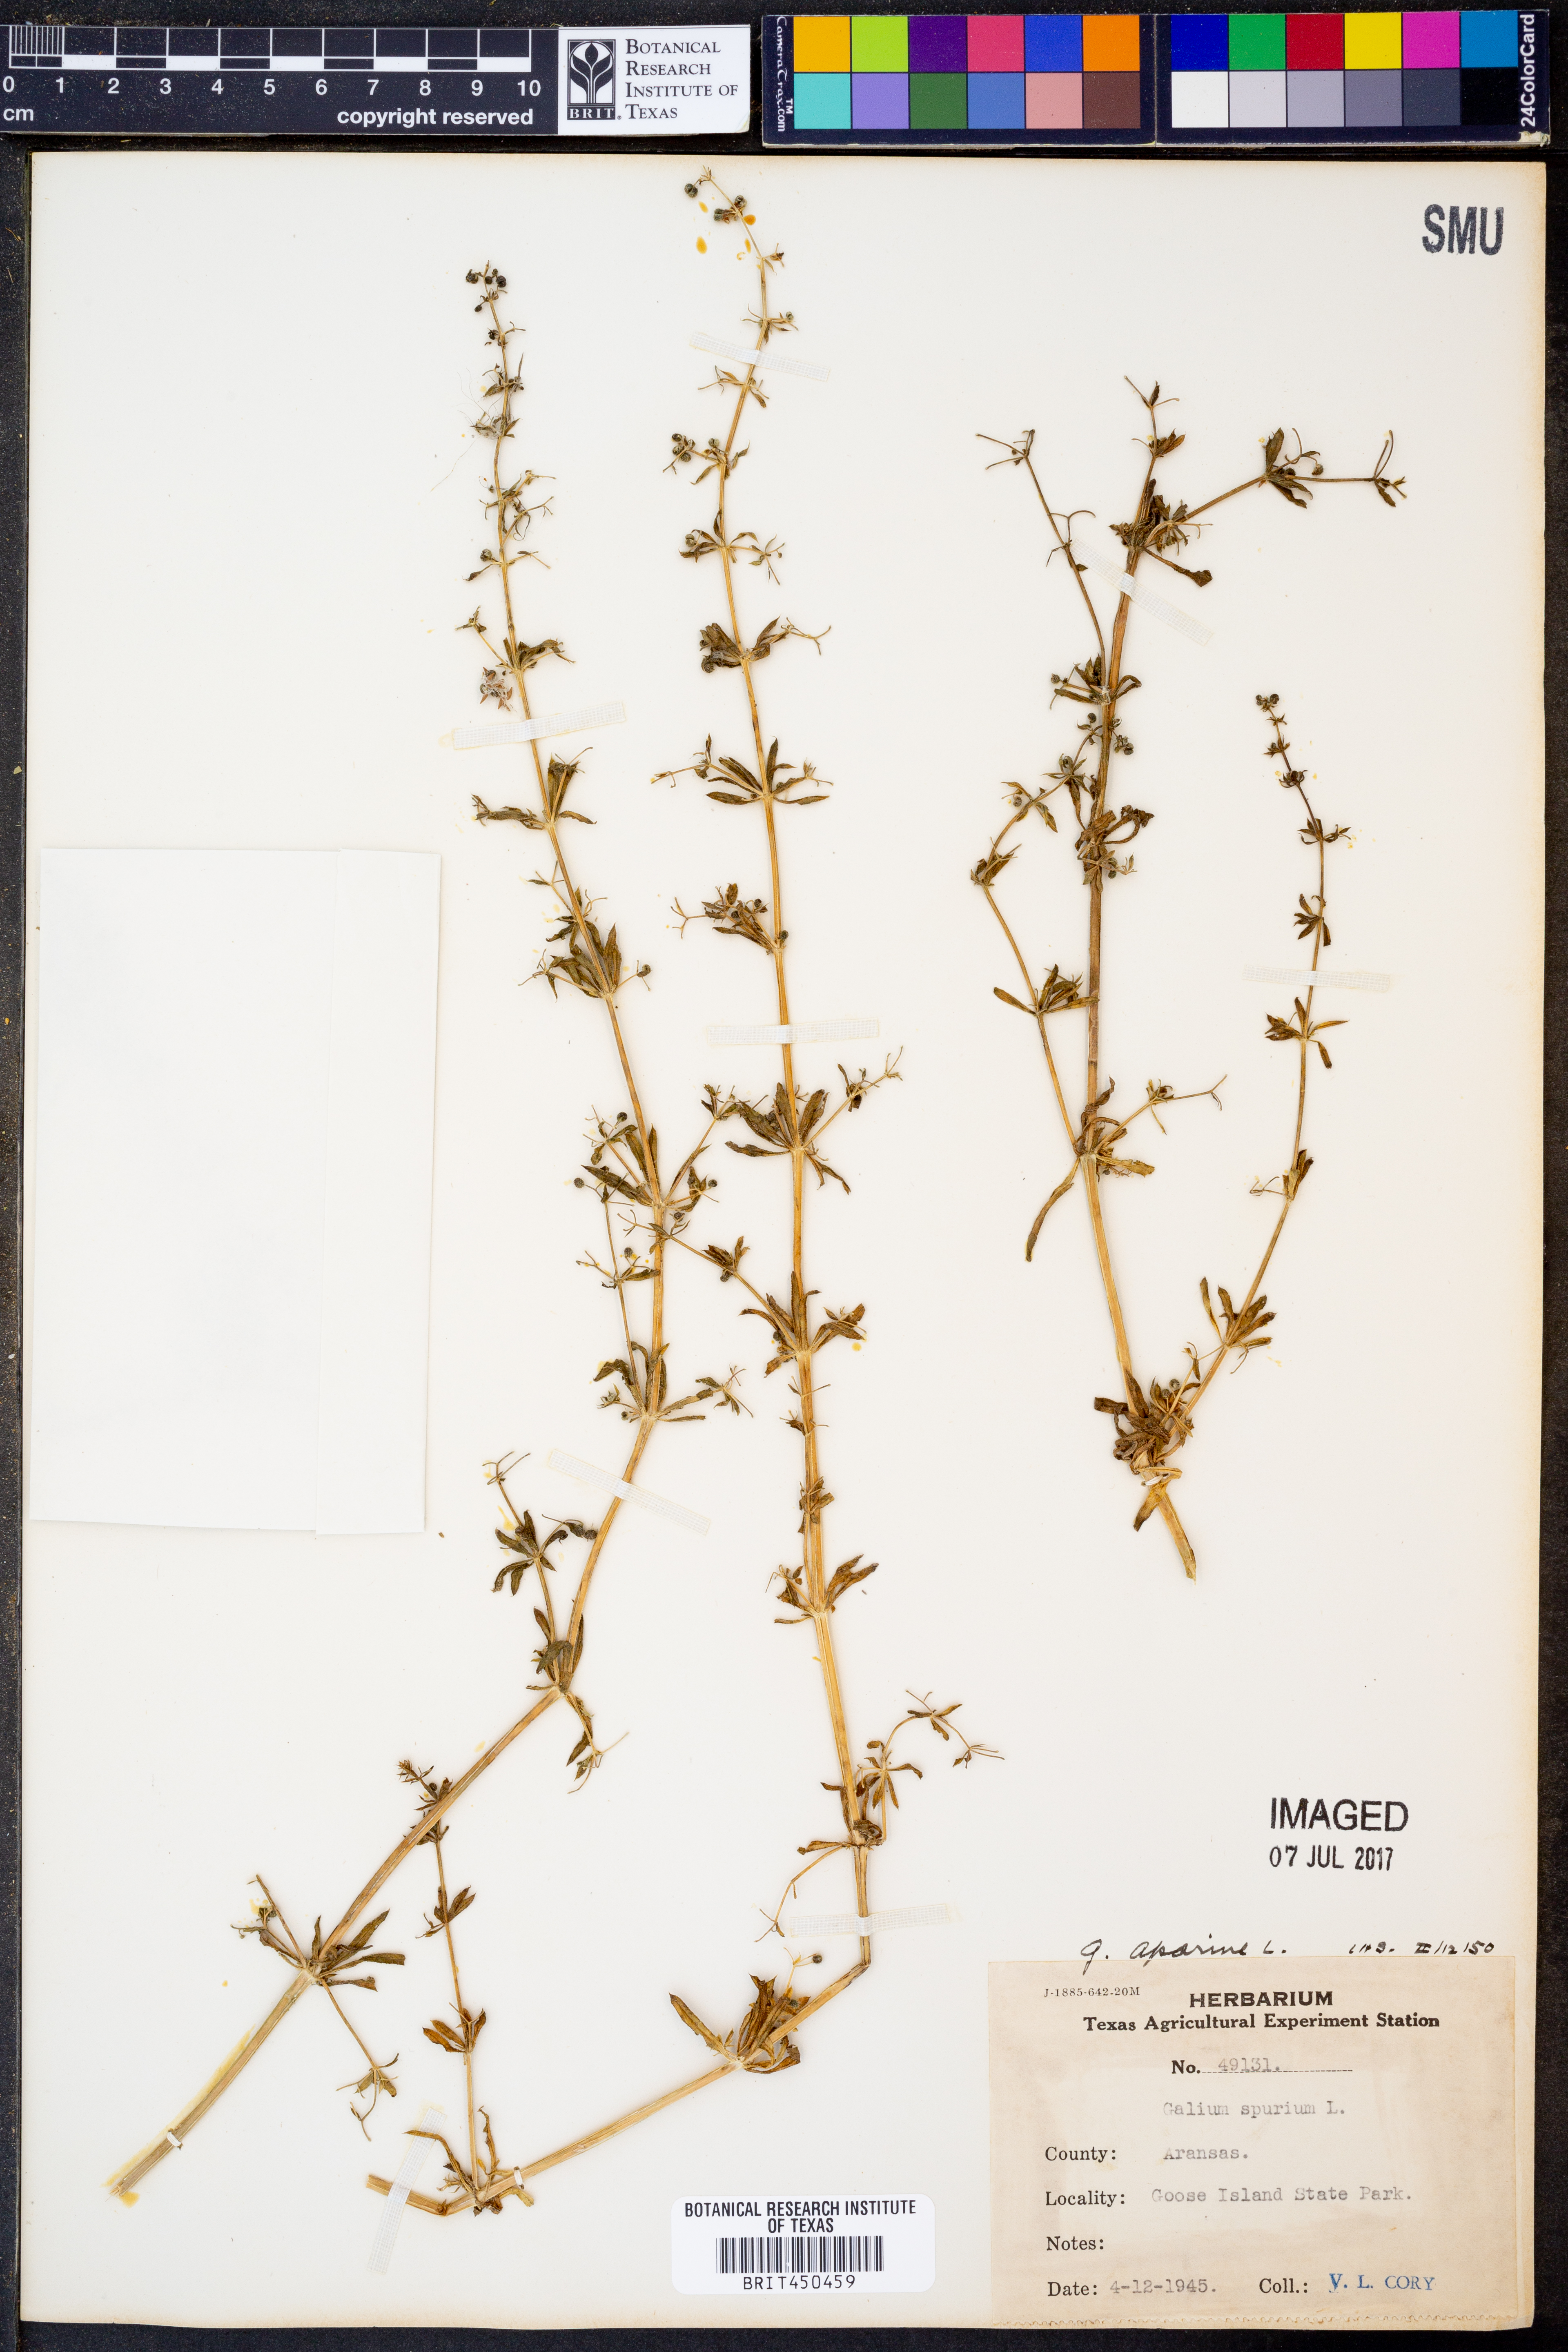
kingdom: Plantae
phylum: Tracheophyta
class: Magnoliopsida
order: Gentianales
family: Rubiaceae
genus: Galium
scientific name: Galium aparine
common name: Cleavers
